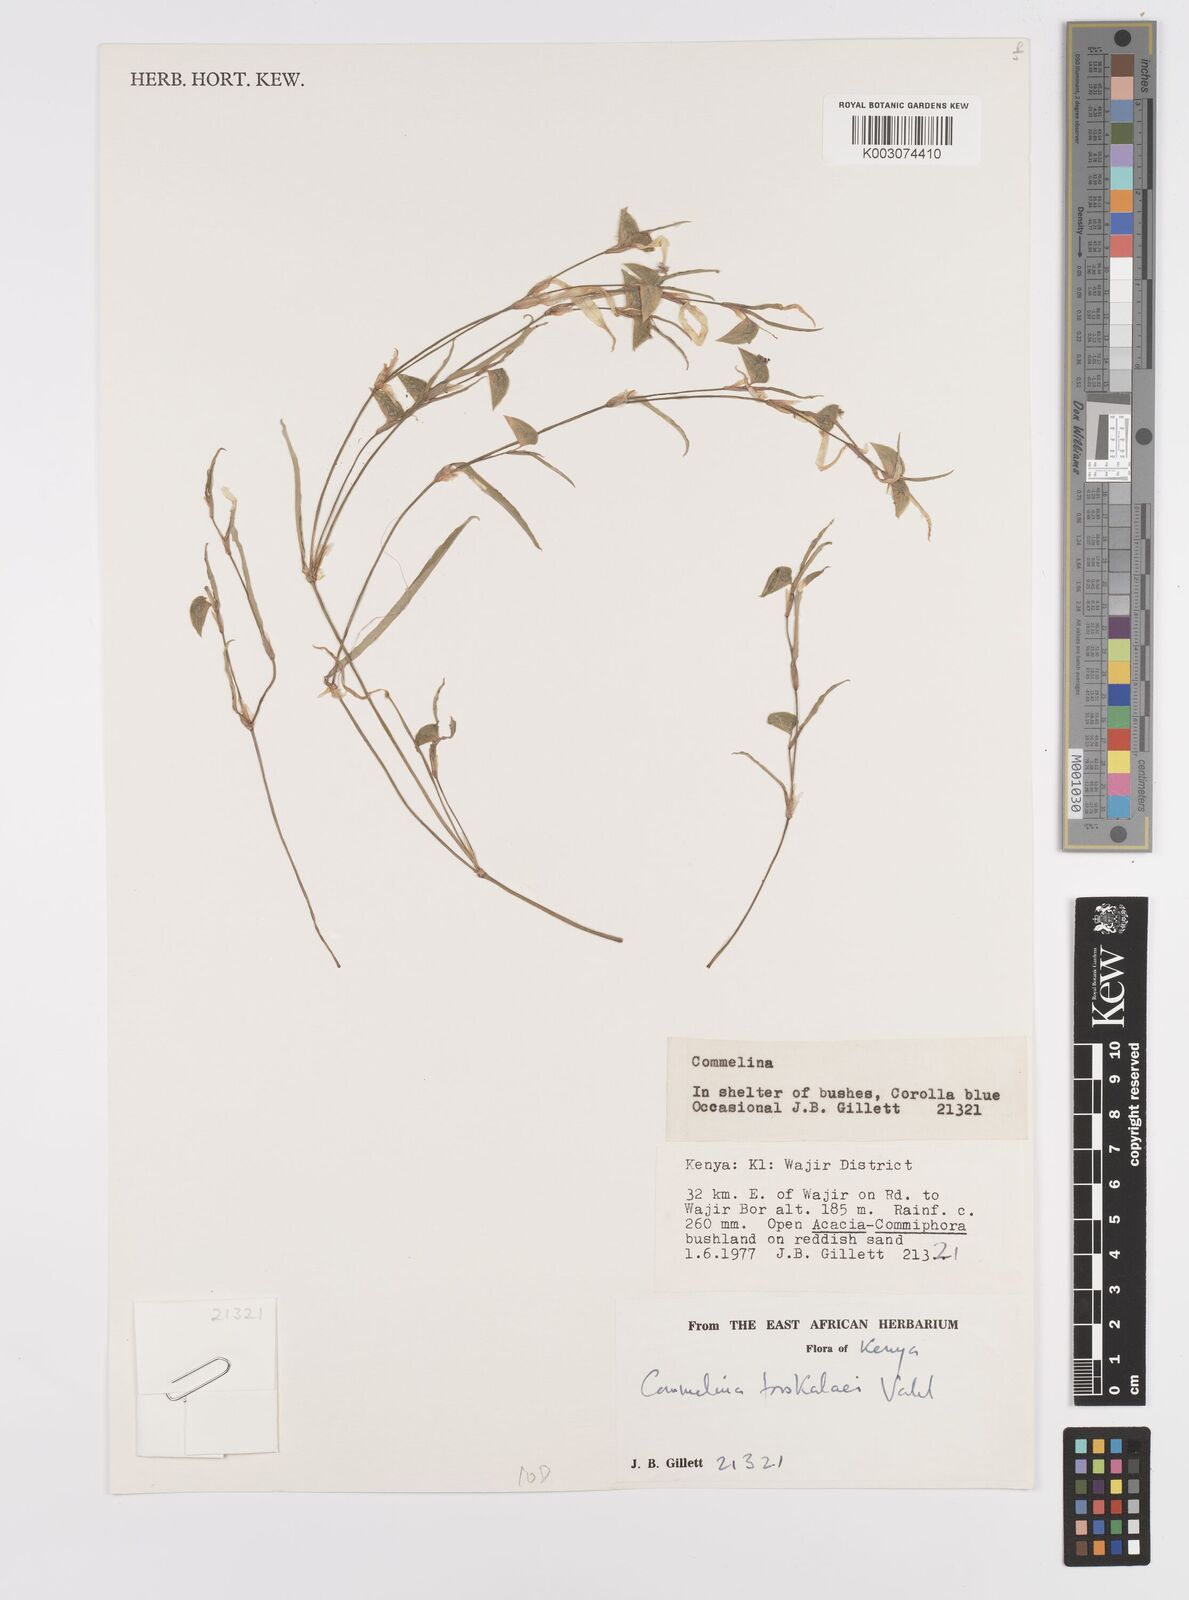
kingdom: Plantae
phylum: Tracheophyta
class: Liliopsida
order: Commelinales
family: Commelinaceae
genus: Commelina
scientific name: Commelina forskaolii
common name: Rat's ear
